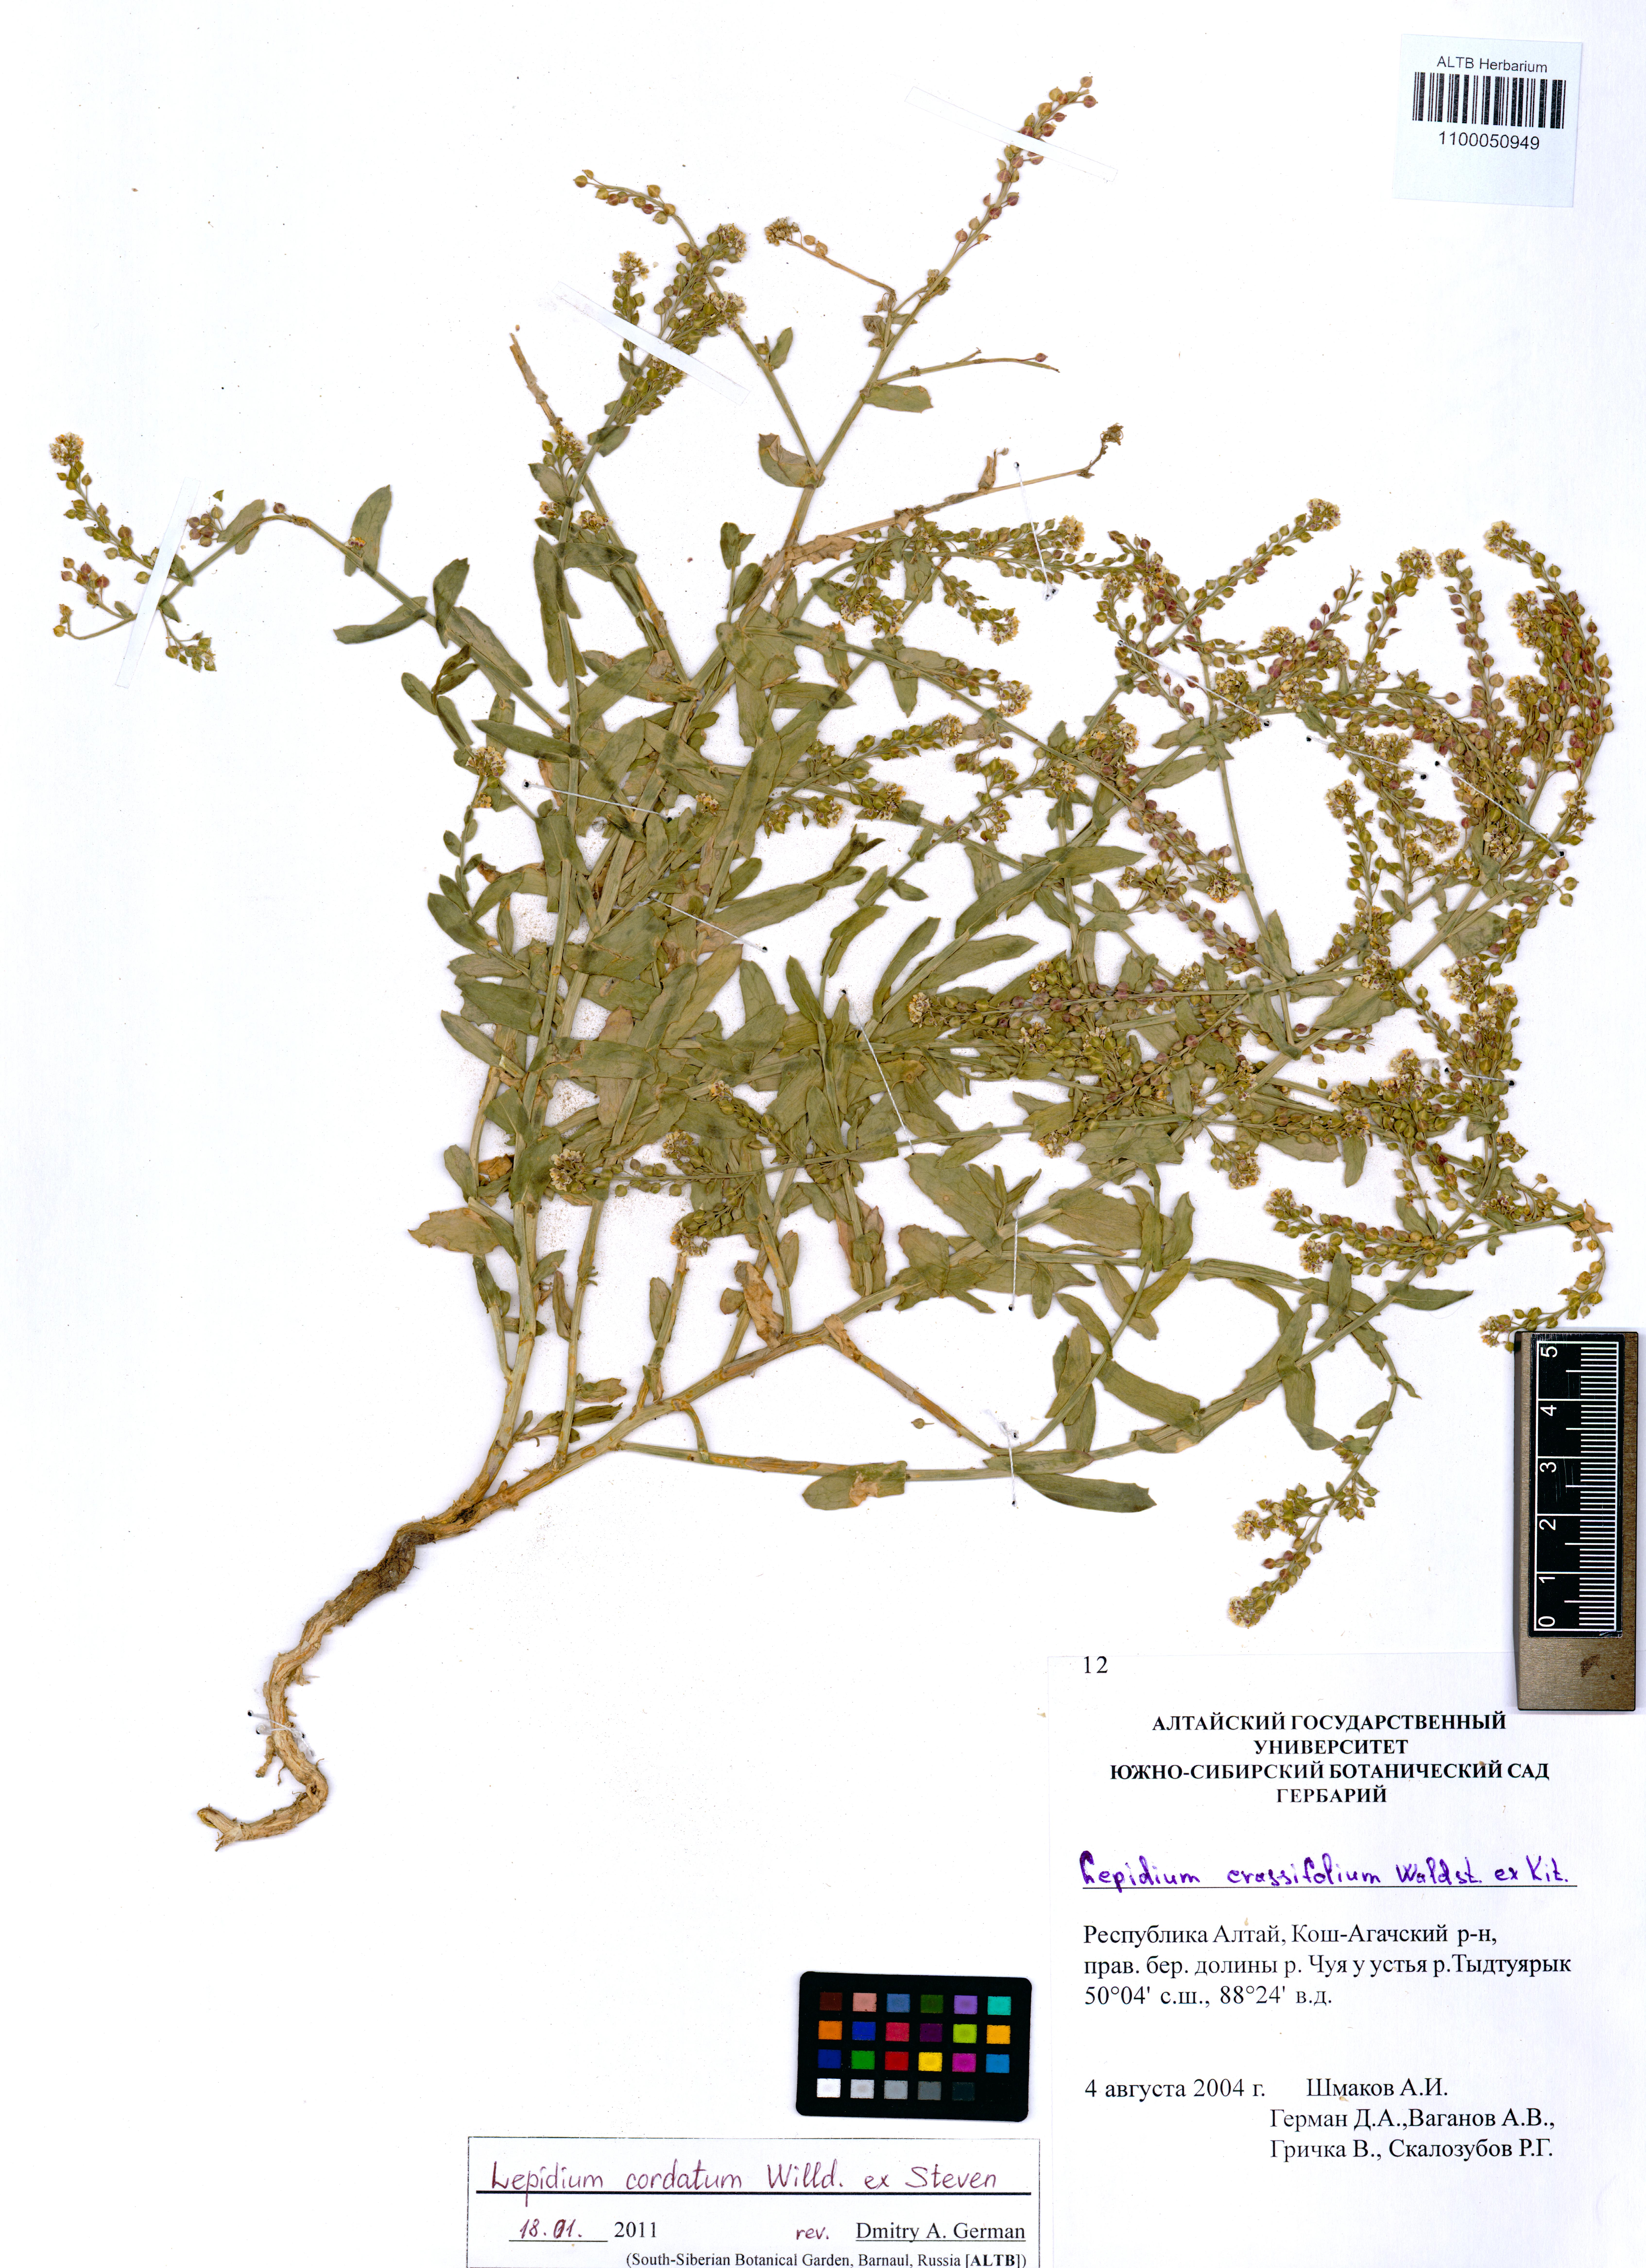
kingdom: Plantae
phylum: Tracheophyta
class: Magnoliopsida
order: Brassicales
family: Brassicaceae
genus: Lepidium
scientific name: Lepidium cordatum
